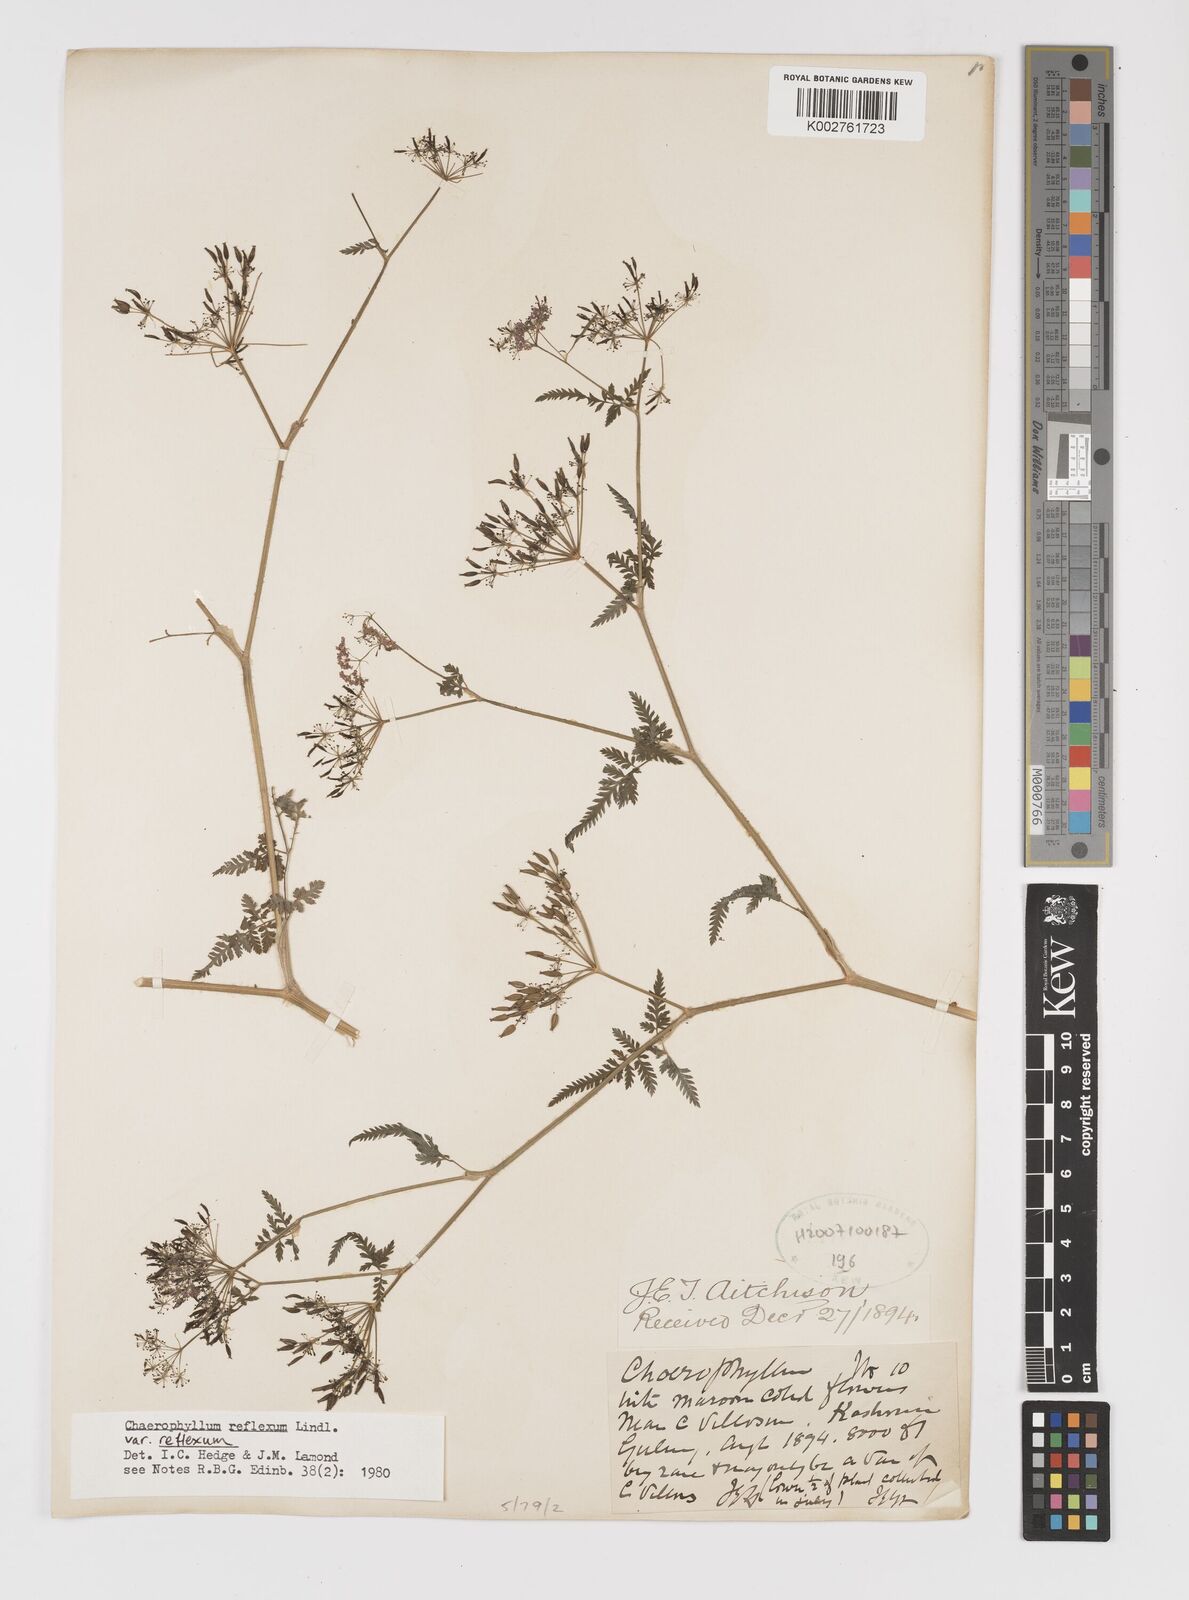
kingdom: Plantae
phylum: Tracheophyta
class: Magnoliopsida
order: Apiales
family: Apiaceae
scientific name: Apiaceae
